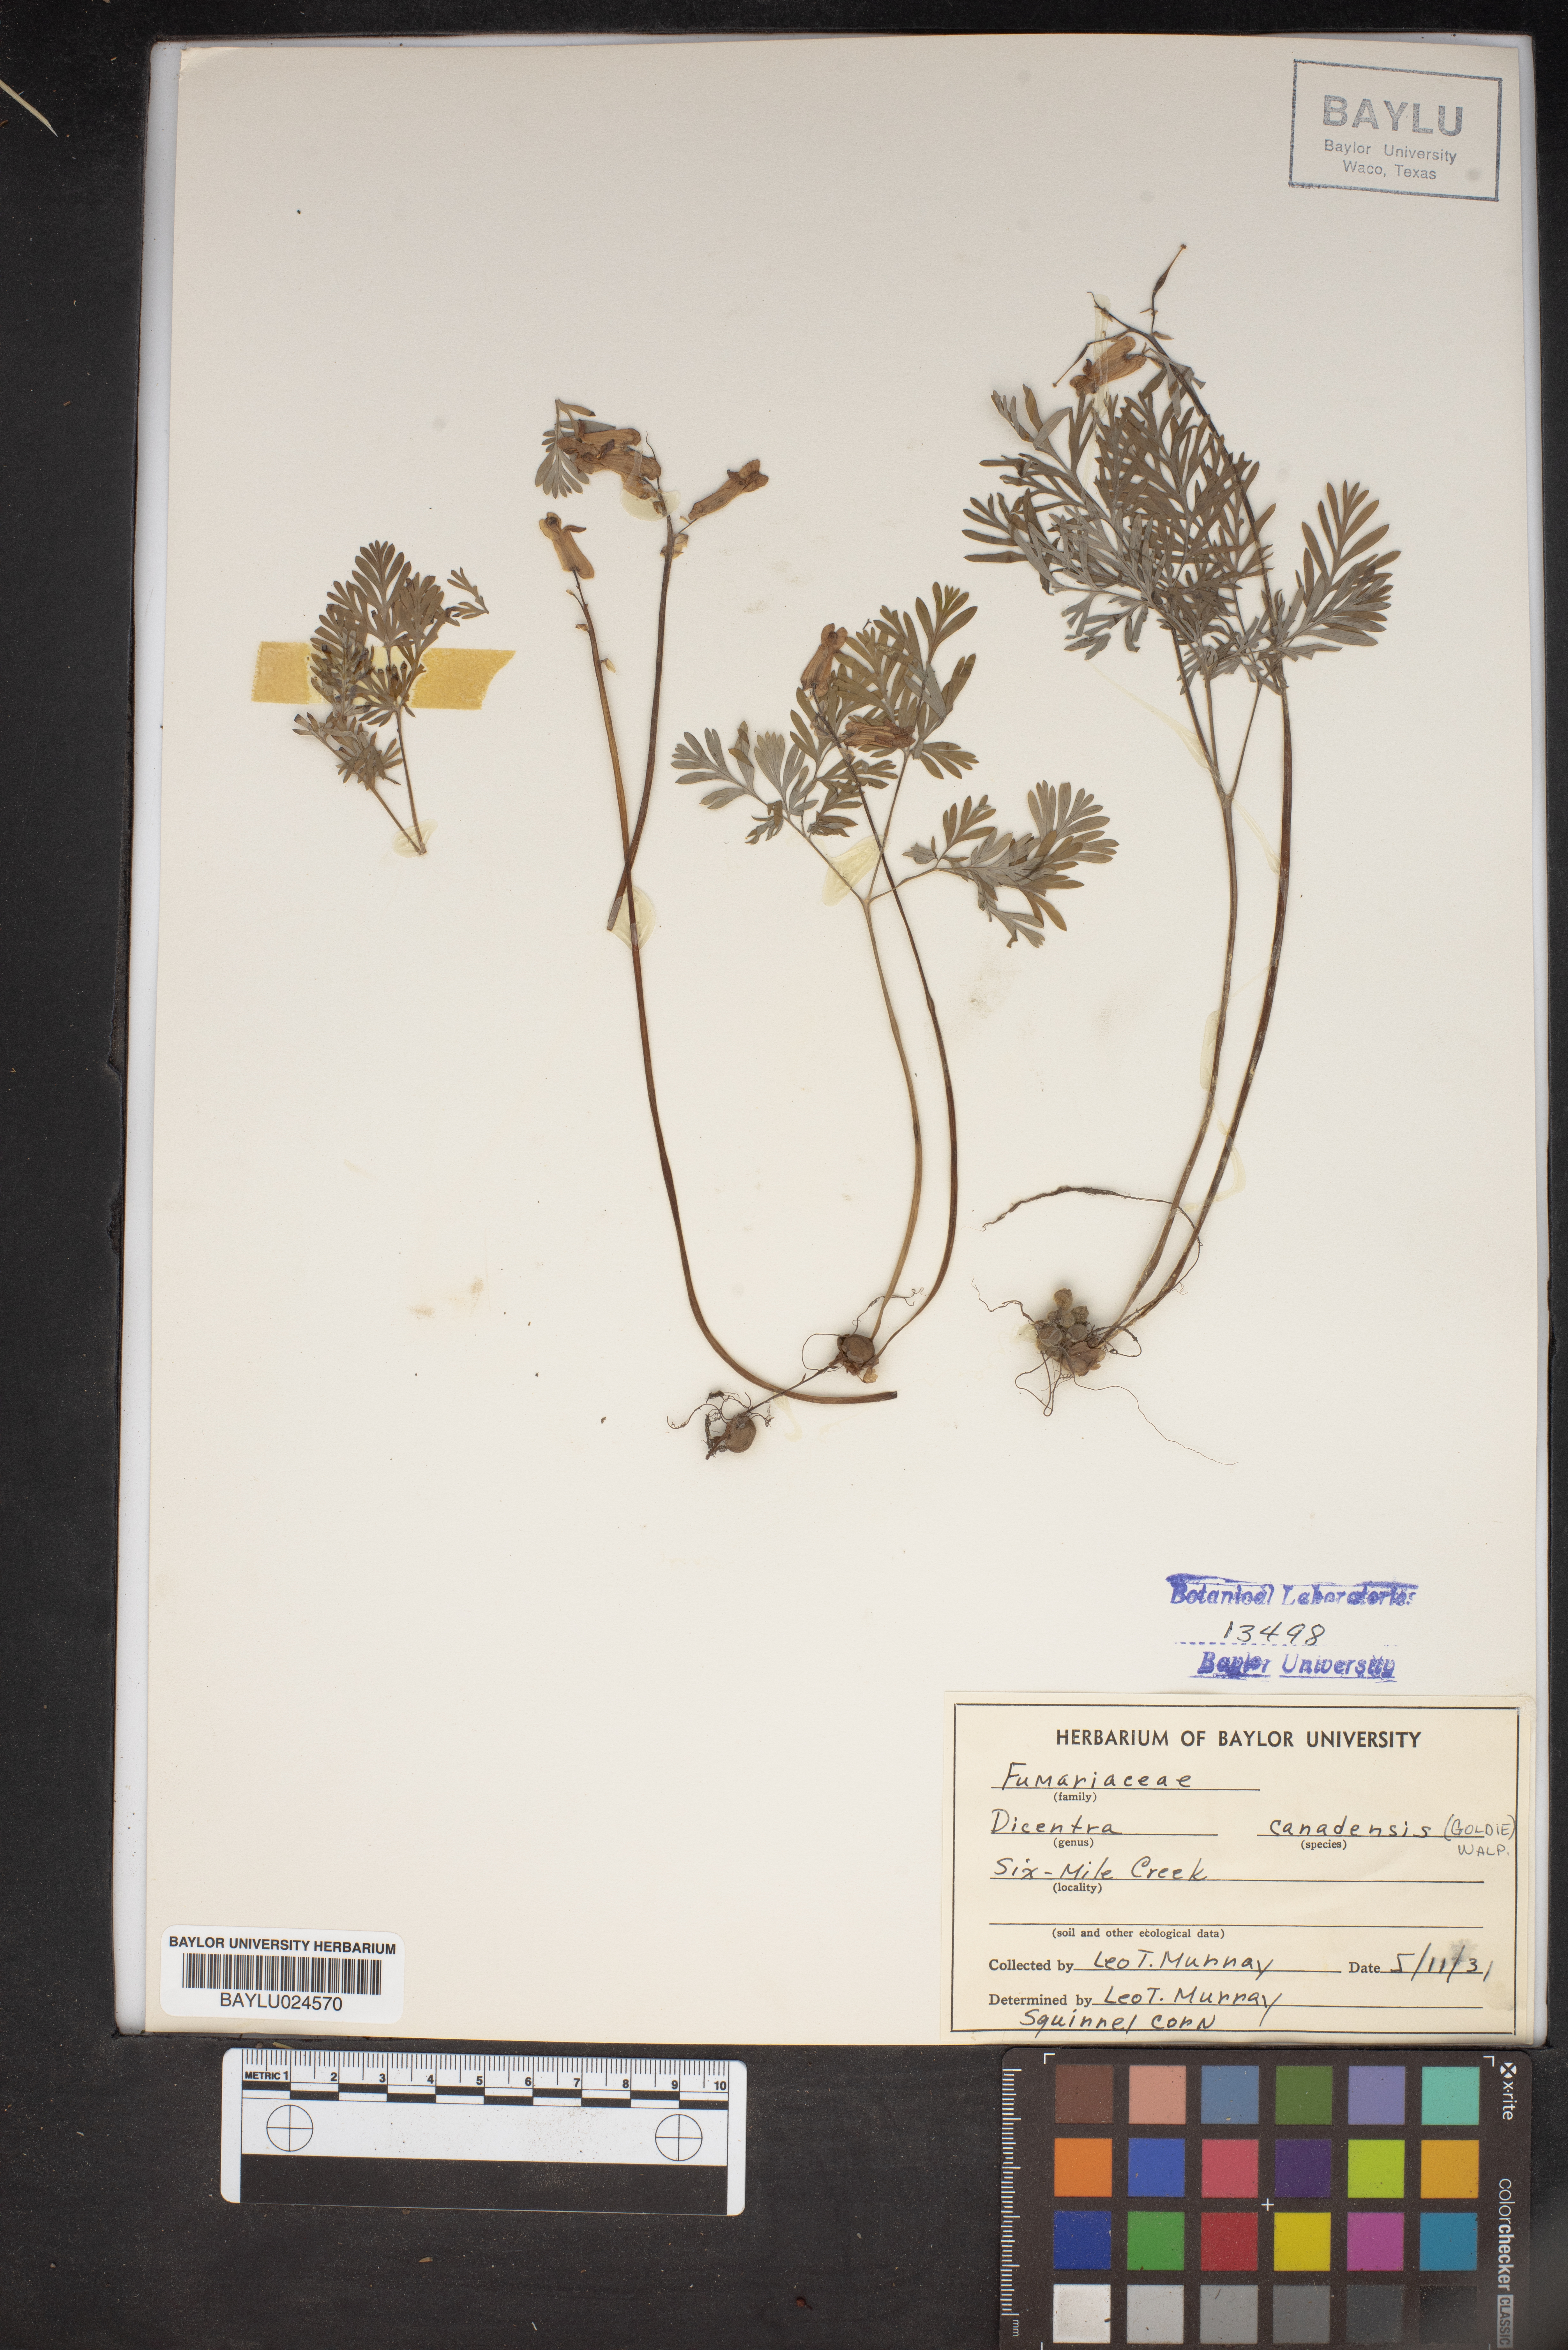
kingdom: Plantae
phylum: Tracheophyta
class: Magnoliopsida
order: Ranunculales
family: Papaveraceae
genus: Dicentra
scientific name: Dicentra canadensis
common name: Squirrel-corn
